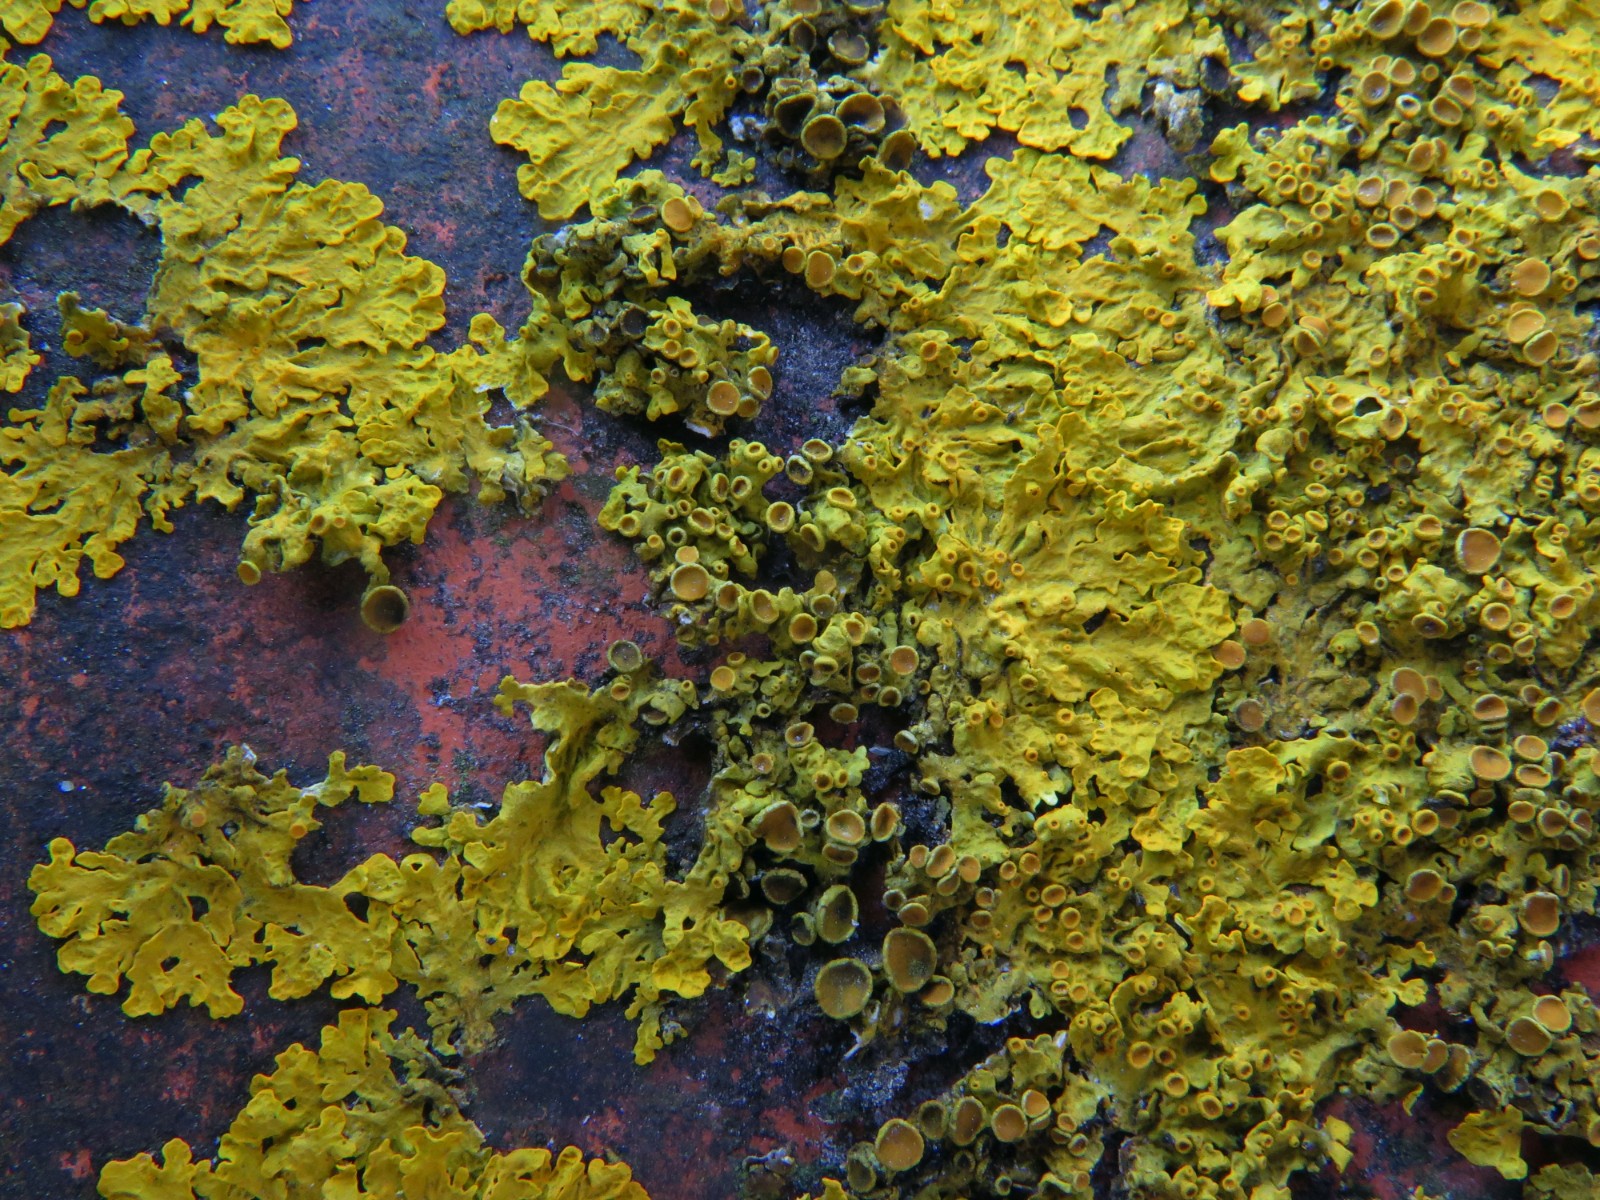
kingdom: Fungi
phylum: Ascomycota
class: Dothideomycetes
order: Mycosphaerellales
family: Teratosphaeriaceae
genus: Xanthoriicola
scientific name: Xanthoriicola physciae
